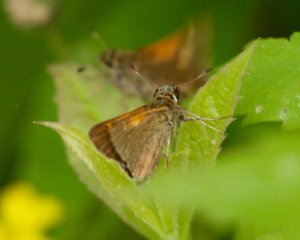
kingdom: Animalia
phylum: Arthropoda
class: Insecta
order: Lepidoptera
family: Hesperiidae
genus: Polites
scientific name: Polites themistocles
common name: Tawny-edged Skipper
